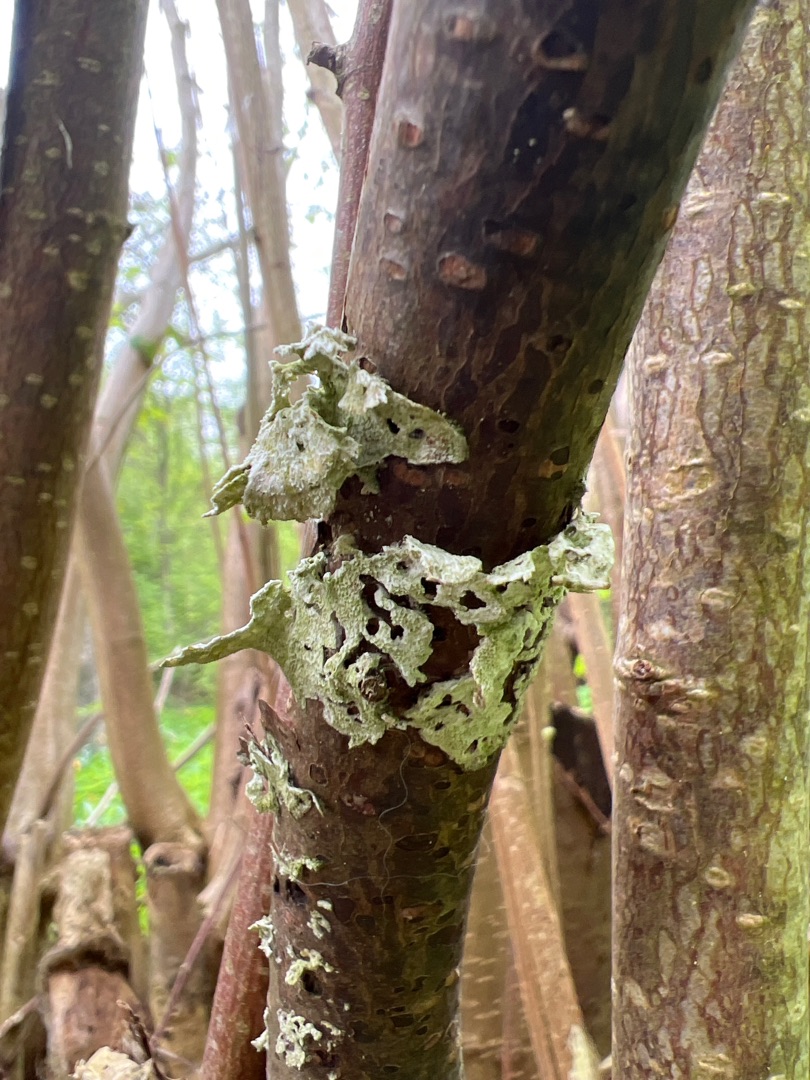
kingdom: Fungi
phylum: Ascomycota
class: Lecanoromycetes
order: Lecanorales
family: Ramalinaceae
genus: Ramalina
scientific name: Ramalina
